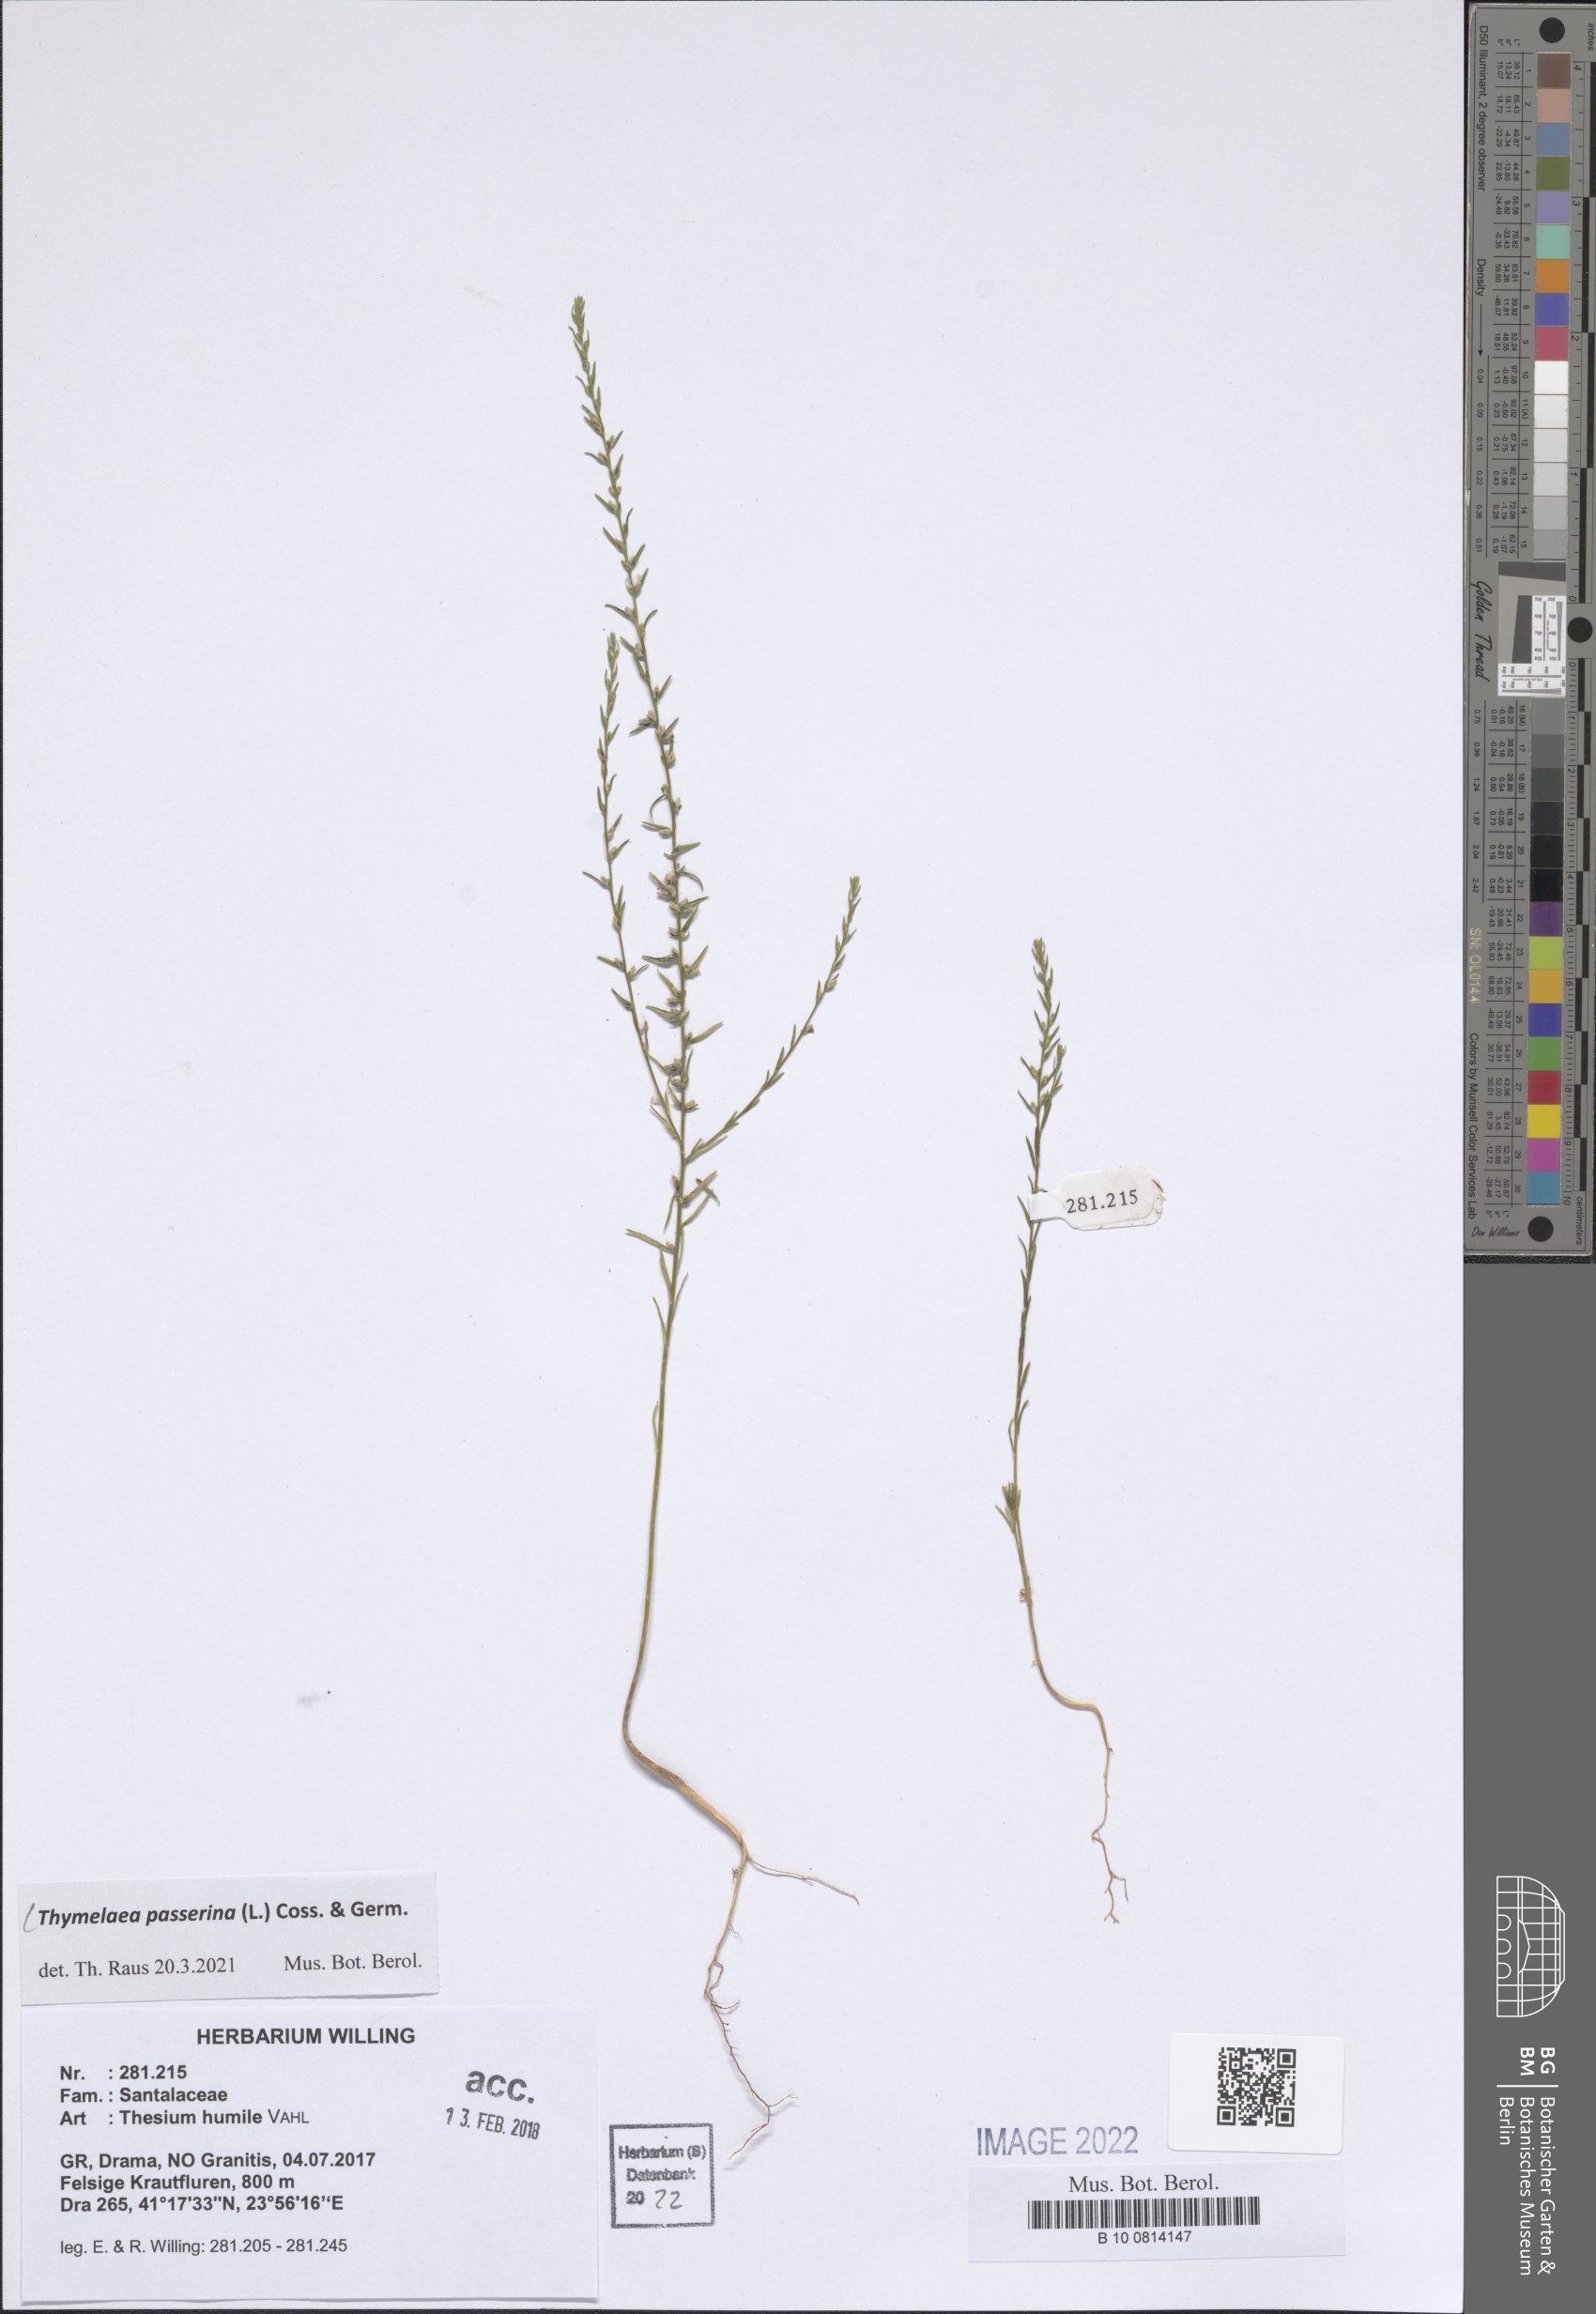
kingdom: Plantae
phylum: Tracheophyta
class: Magnoliopsida
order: Malvales
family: Thymelaeaceae
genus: Thymelaea
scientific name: Thymelaea passerina
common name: Annual thymelaea
